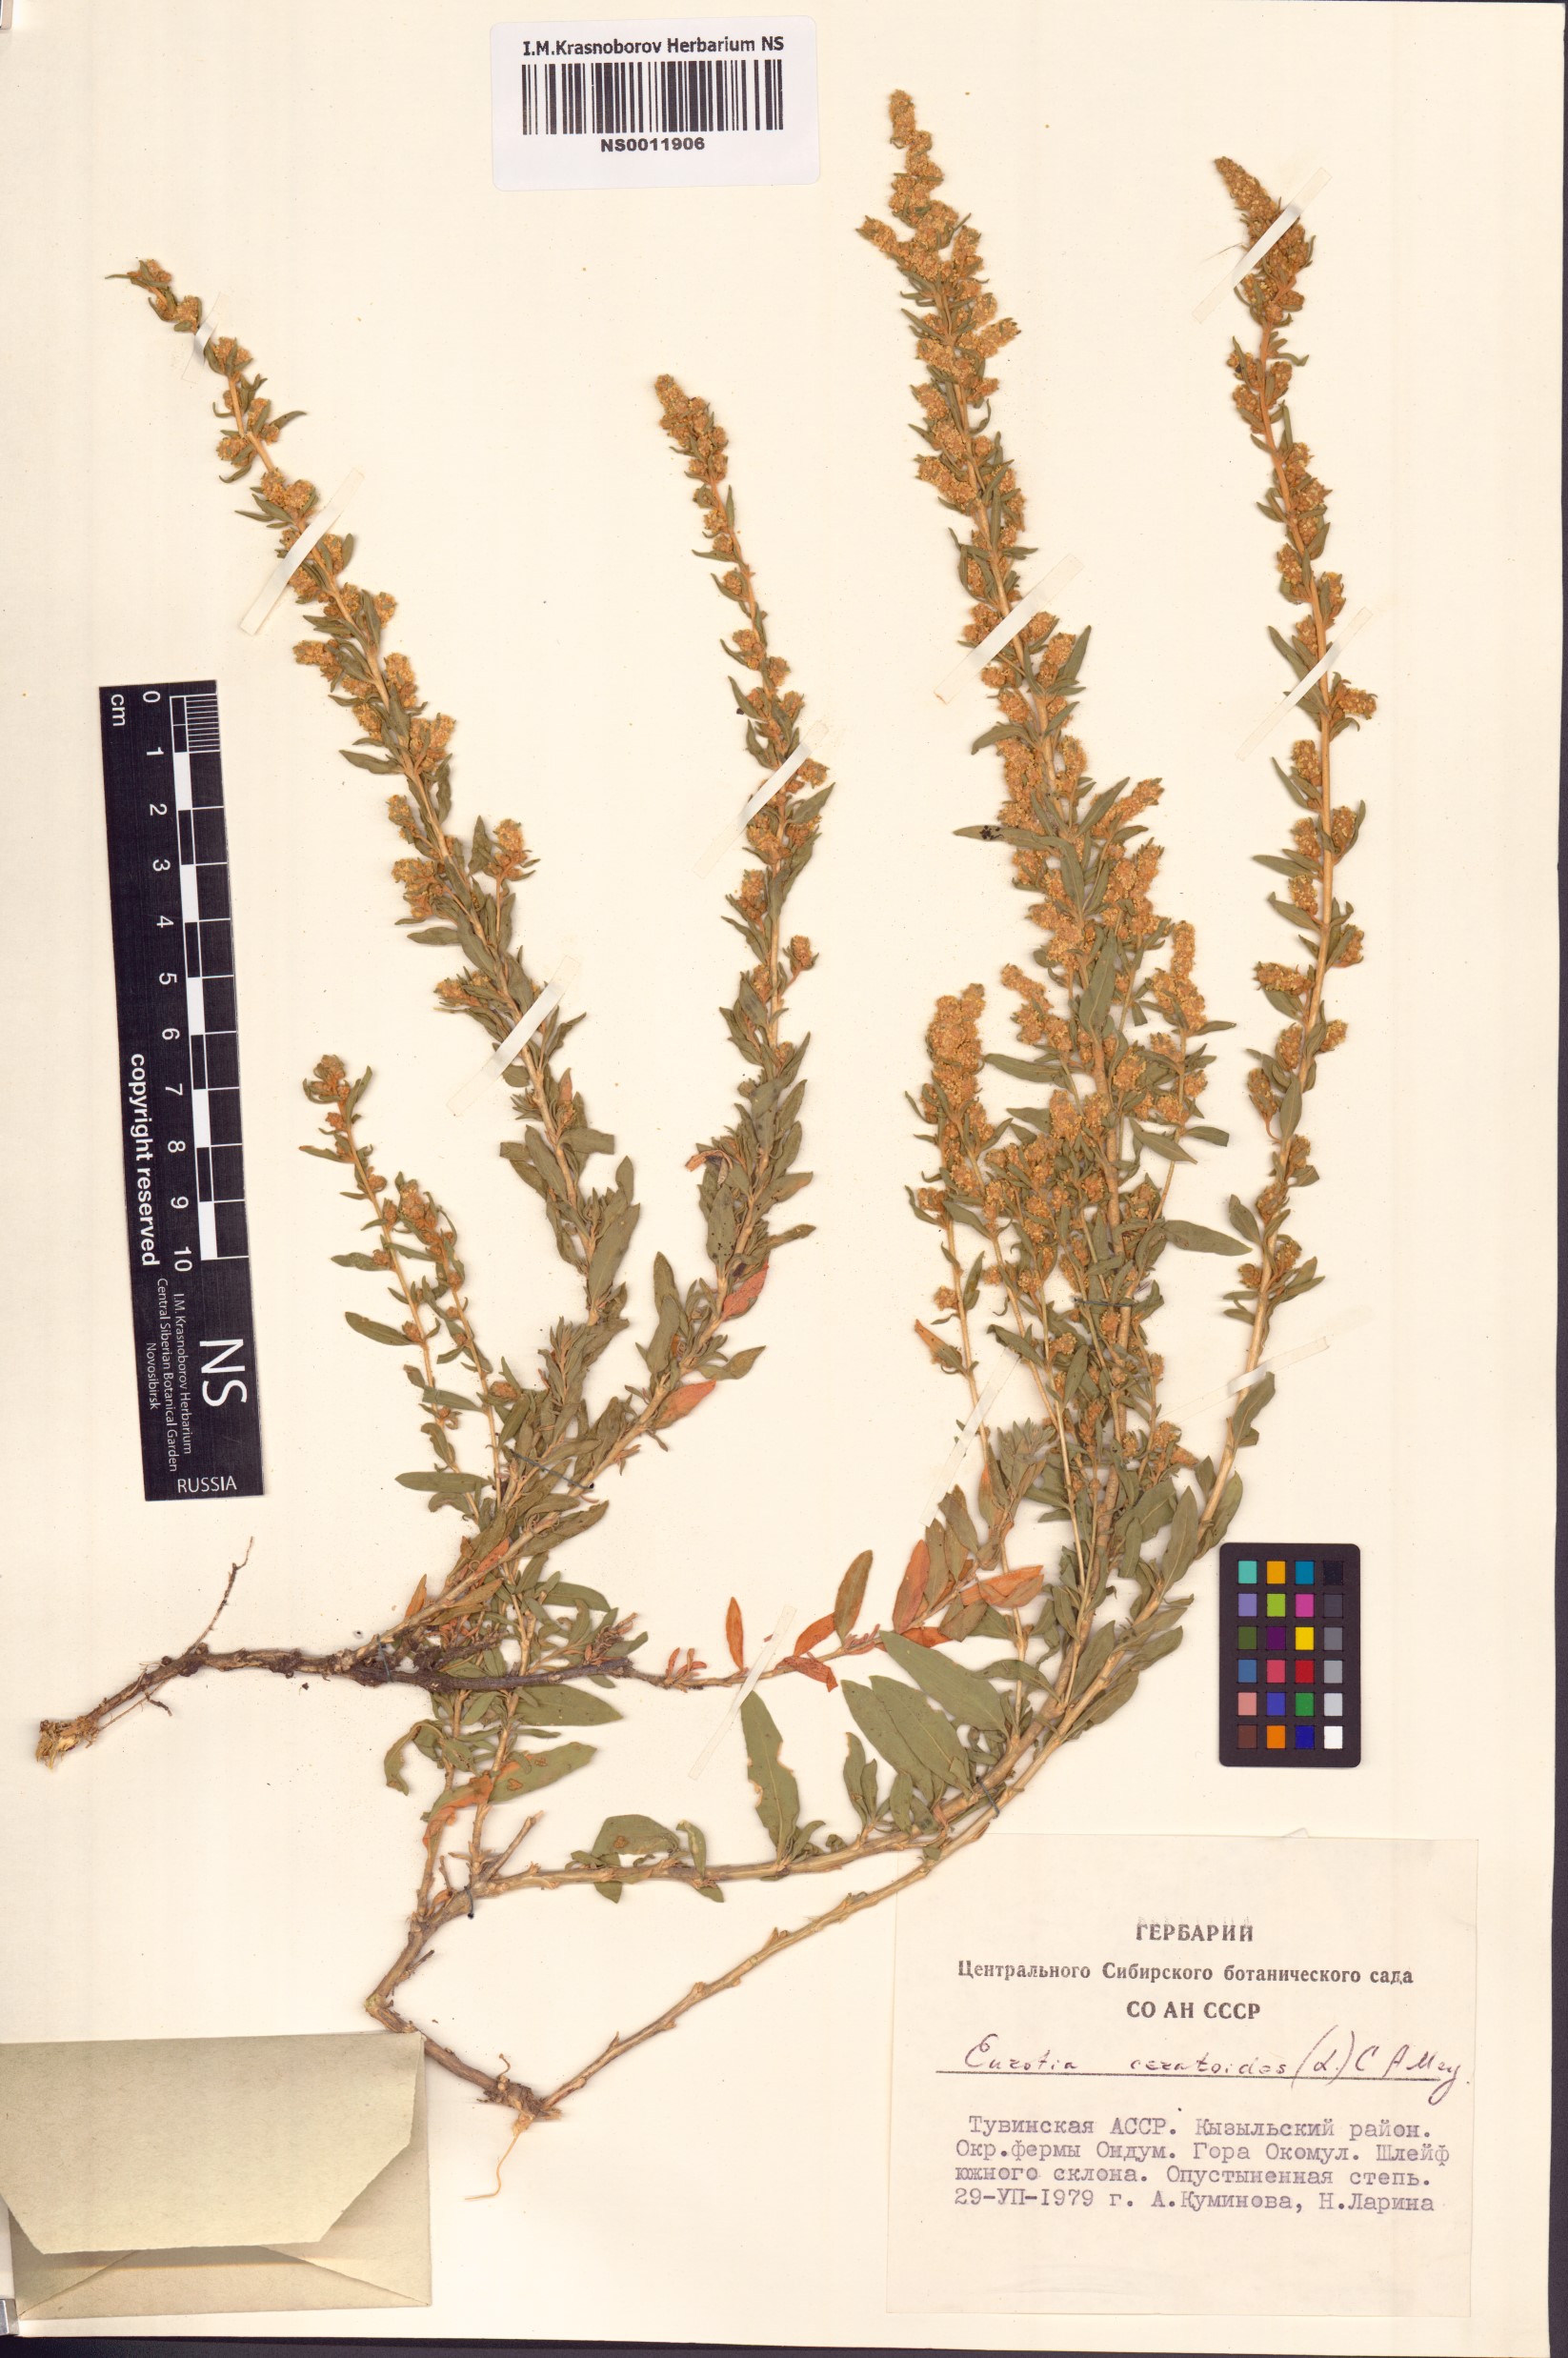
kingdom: Plantae
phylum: Tracheophyta
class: Magnoliopsida
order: Caryophyllales
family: Amaranthaceae
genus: Krascheninnikovia
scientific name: Krascheninnikovia ceratoides
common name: Pamirian winterfat
